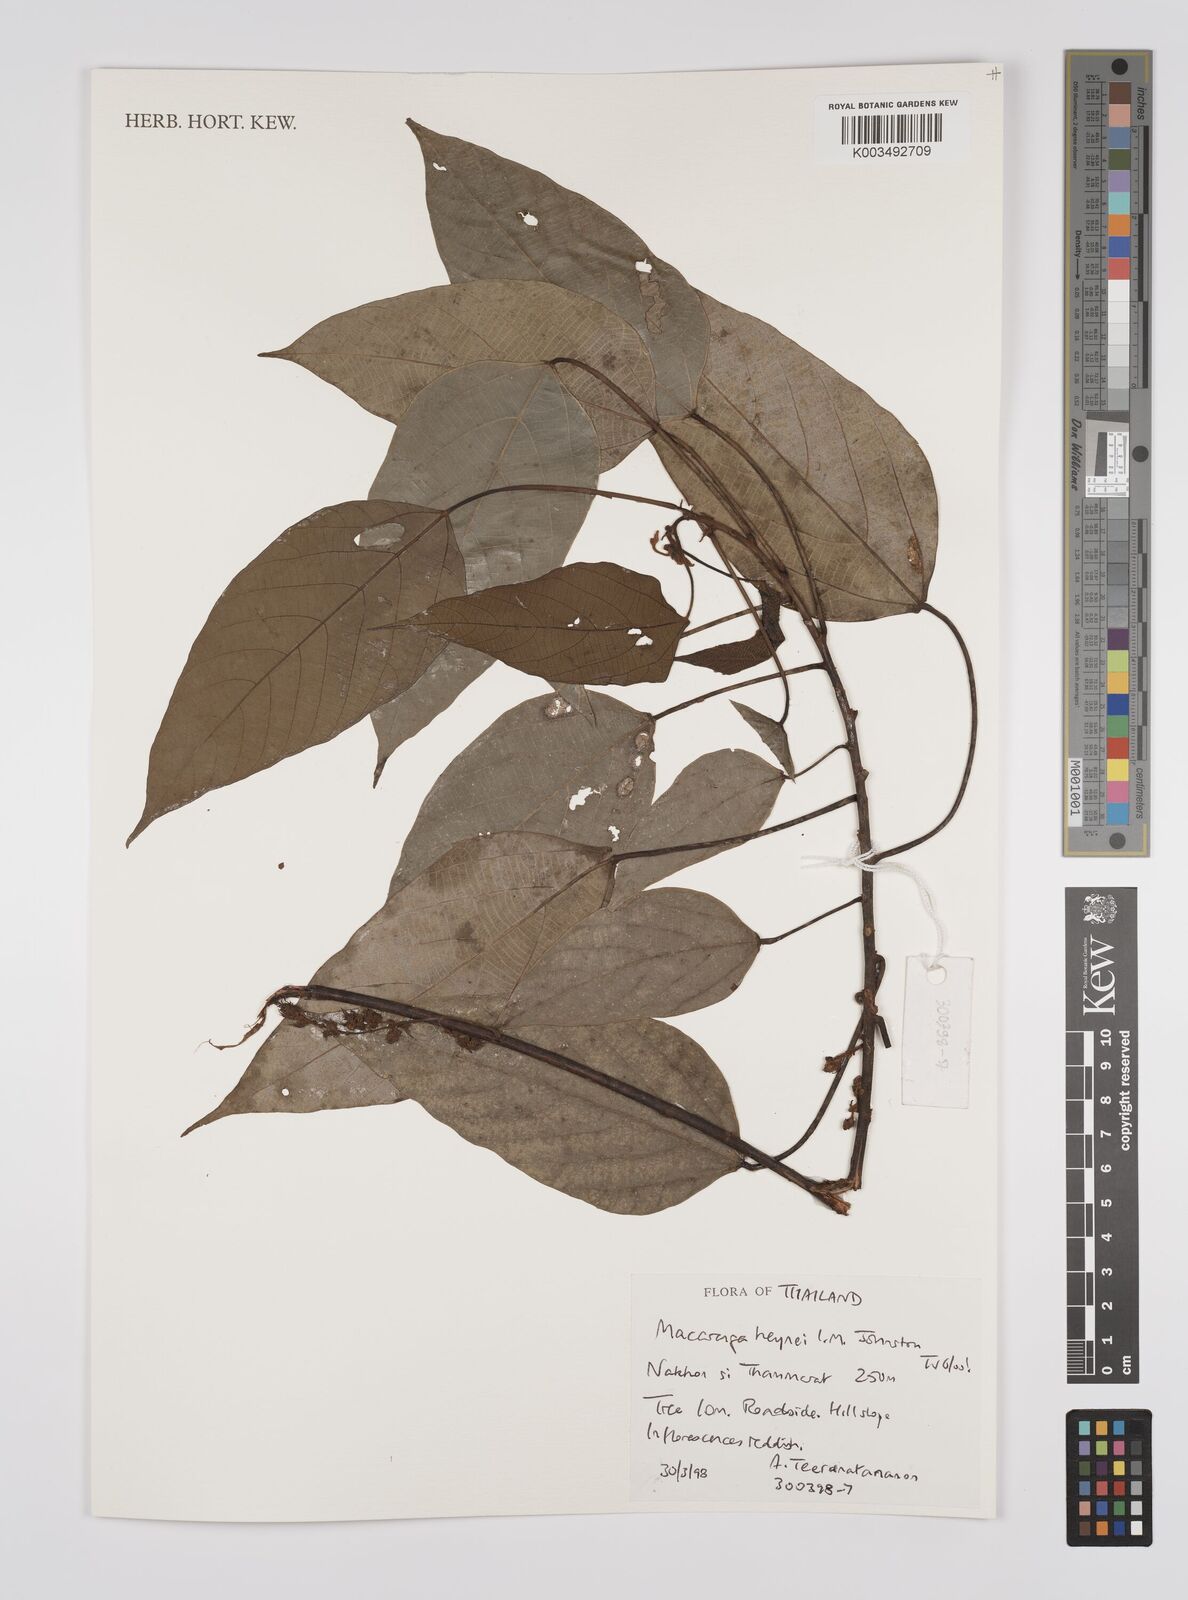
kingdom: Plantae
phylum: Tracheophyta
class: Magnoliopsida
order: Malpighiales
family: Euphorbiaceae
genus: Macaranga
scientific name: Macaranga heynei
